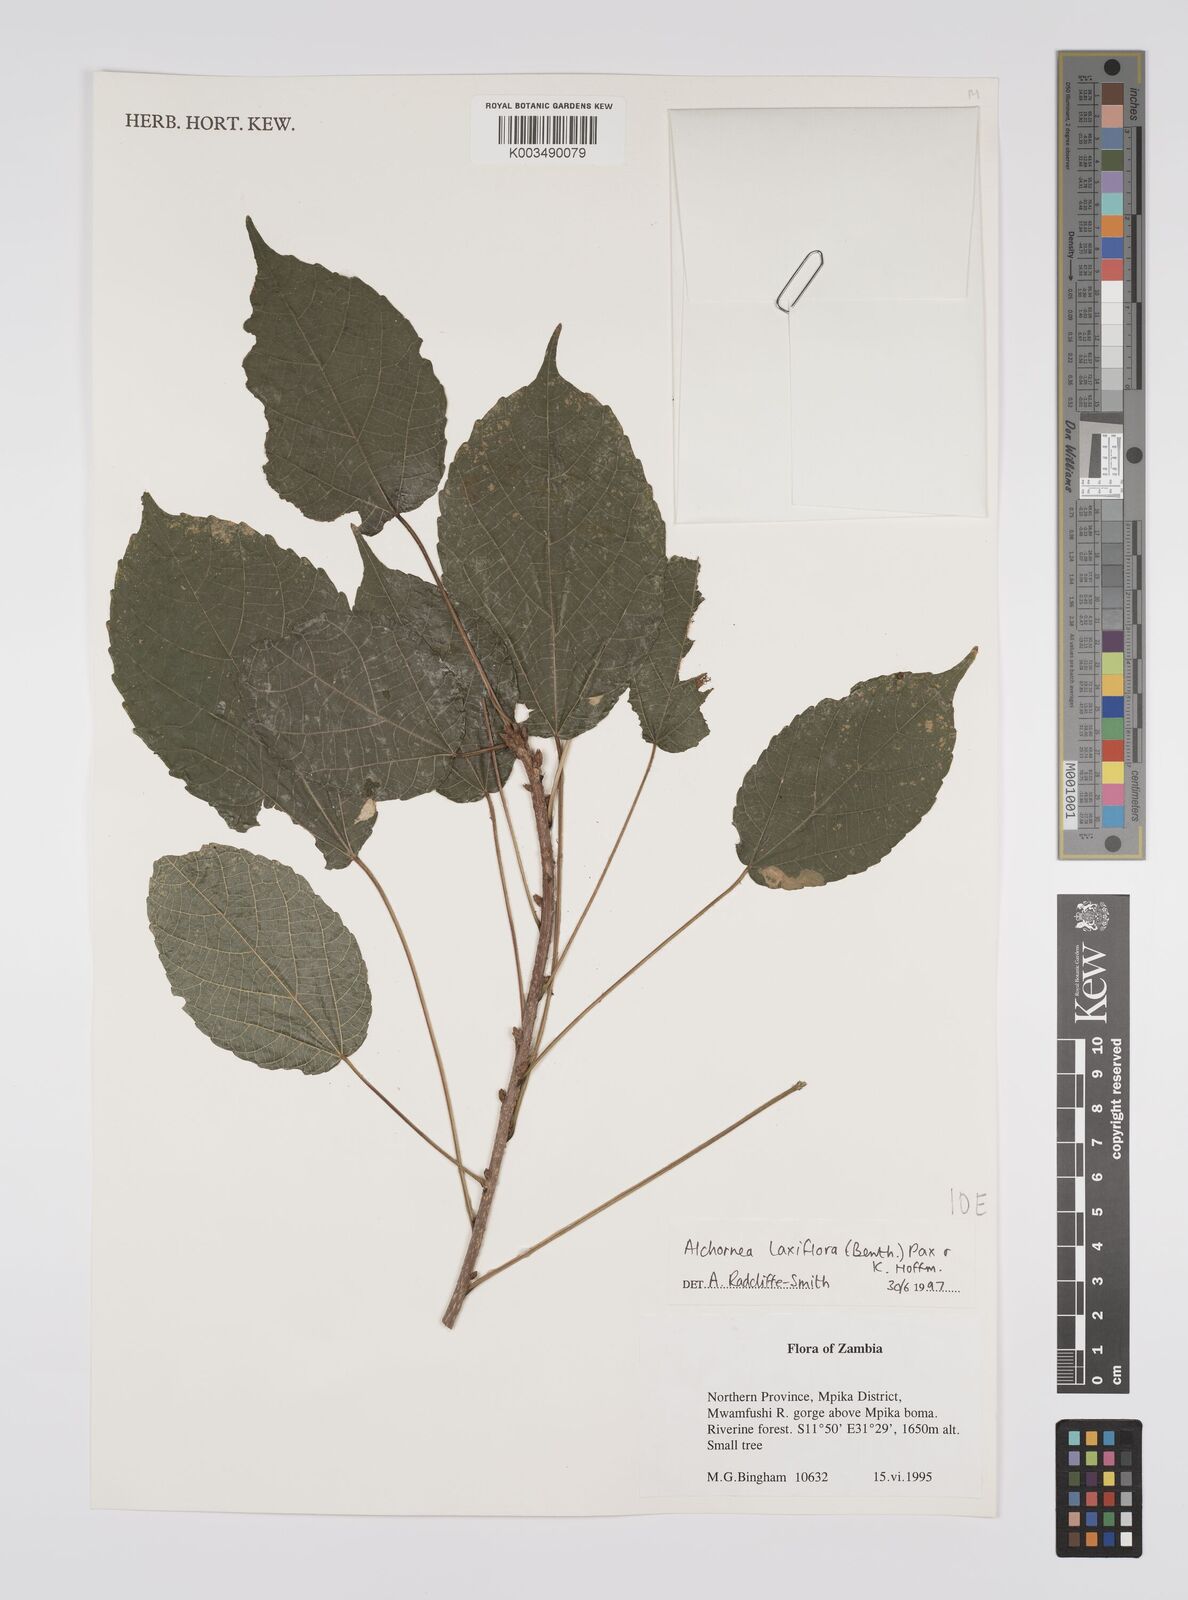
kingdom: Plantae
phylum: Tracheophyta
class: Magnoliopsida
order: Malpighiales
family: Euphorbiaceae
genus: Alchornea
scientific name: Alchornea laxiflora
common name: Lowveld bead-string
